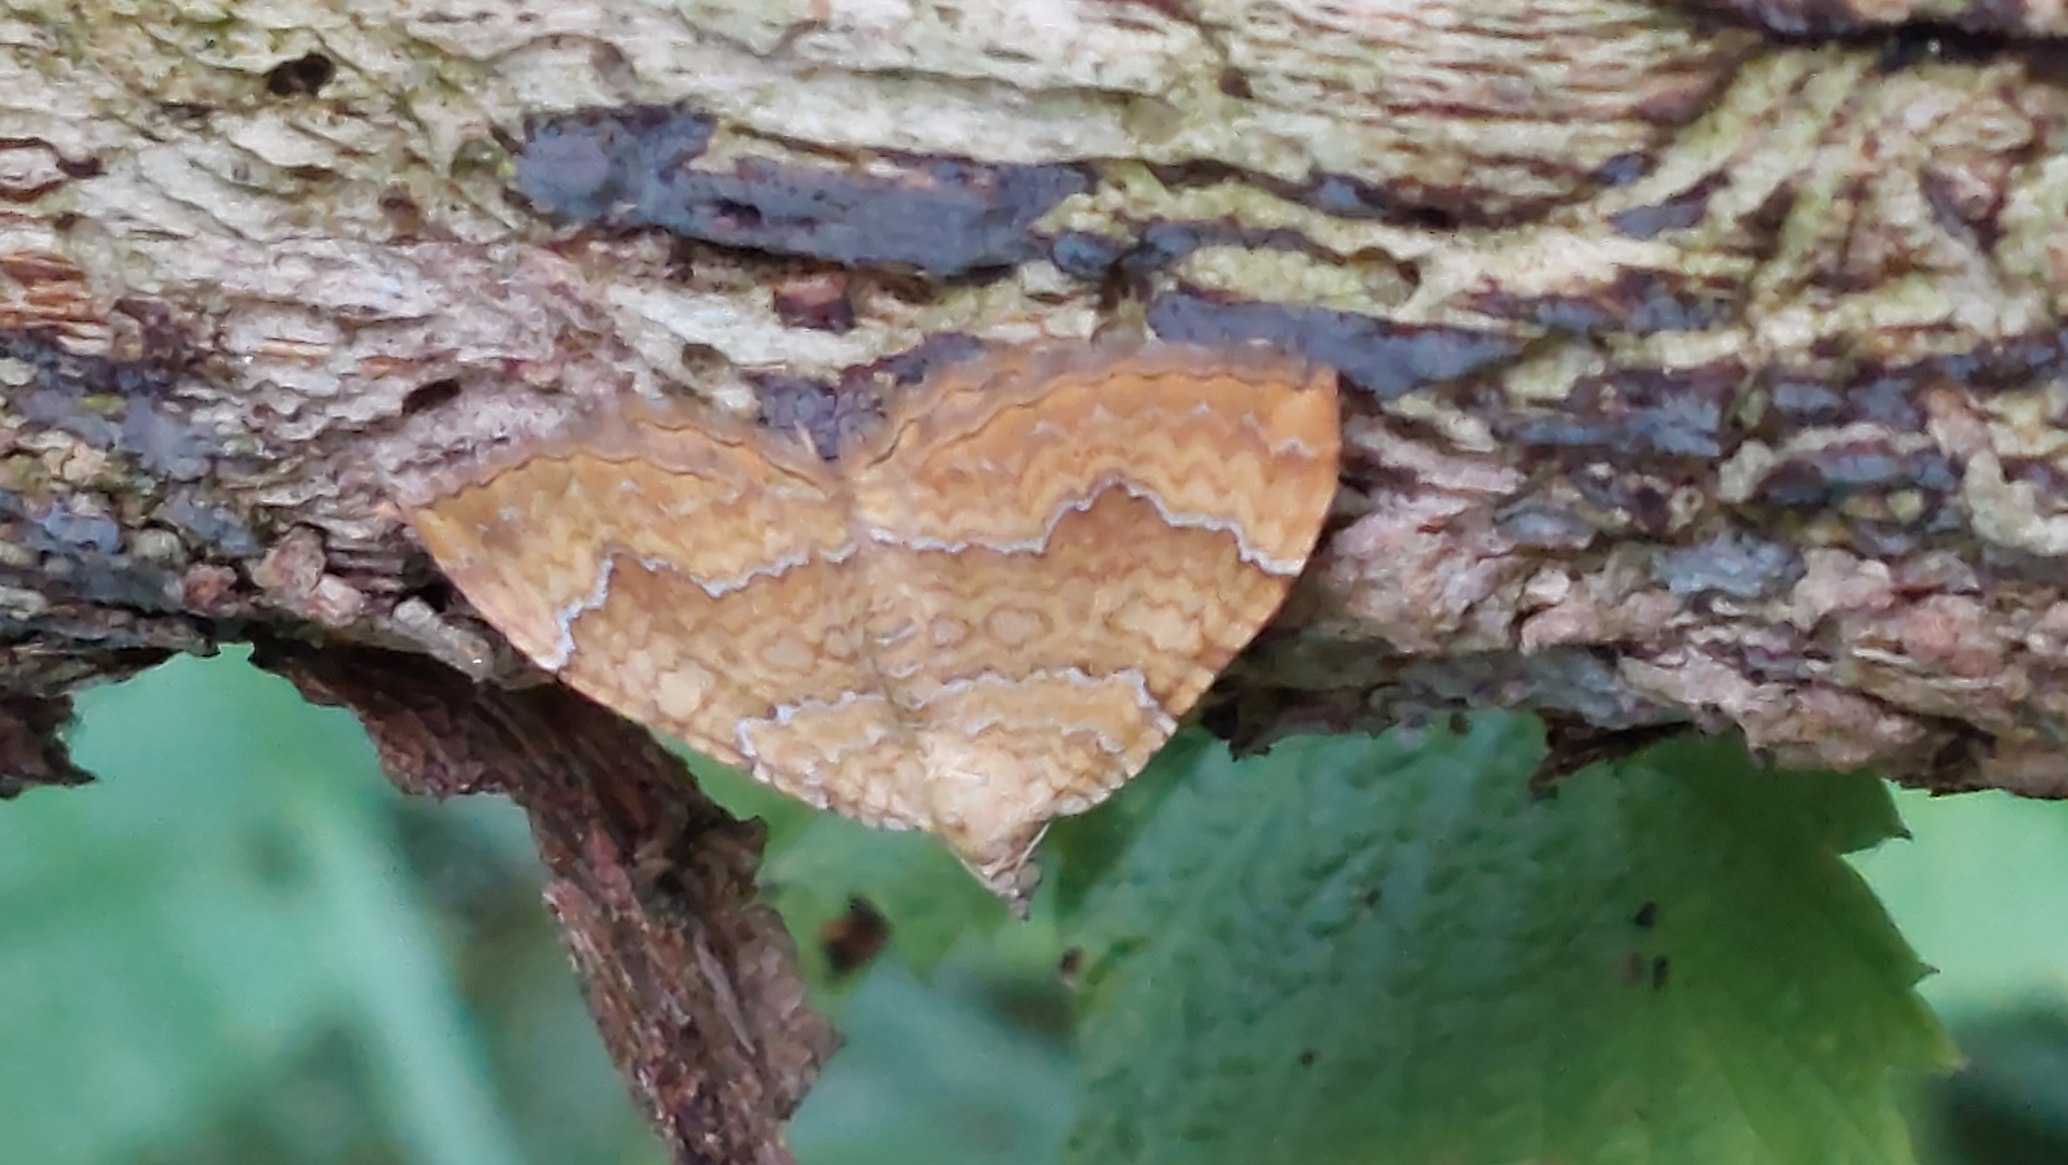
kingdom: Animalia
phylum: Arthropoda
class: Insecta
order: Lepidoptera
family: Geometridae
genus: Camptogramma
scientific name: Camptogramma bilineata
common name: Okkergul bladmåler
